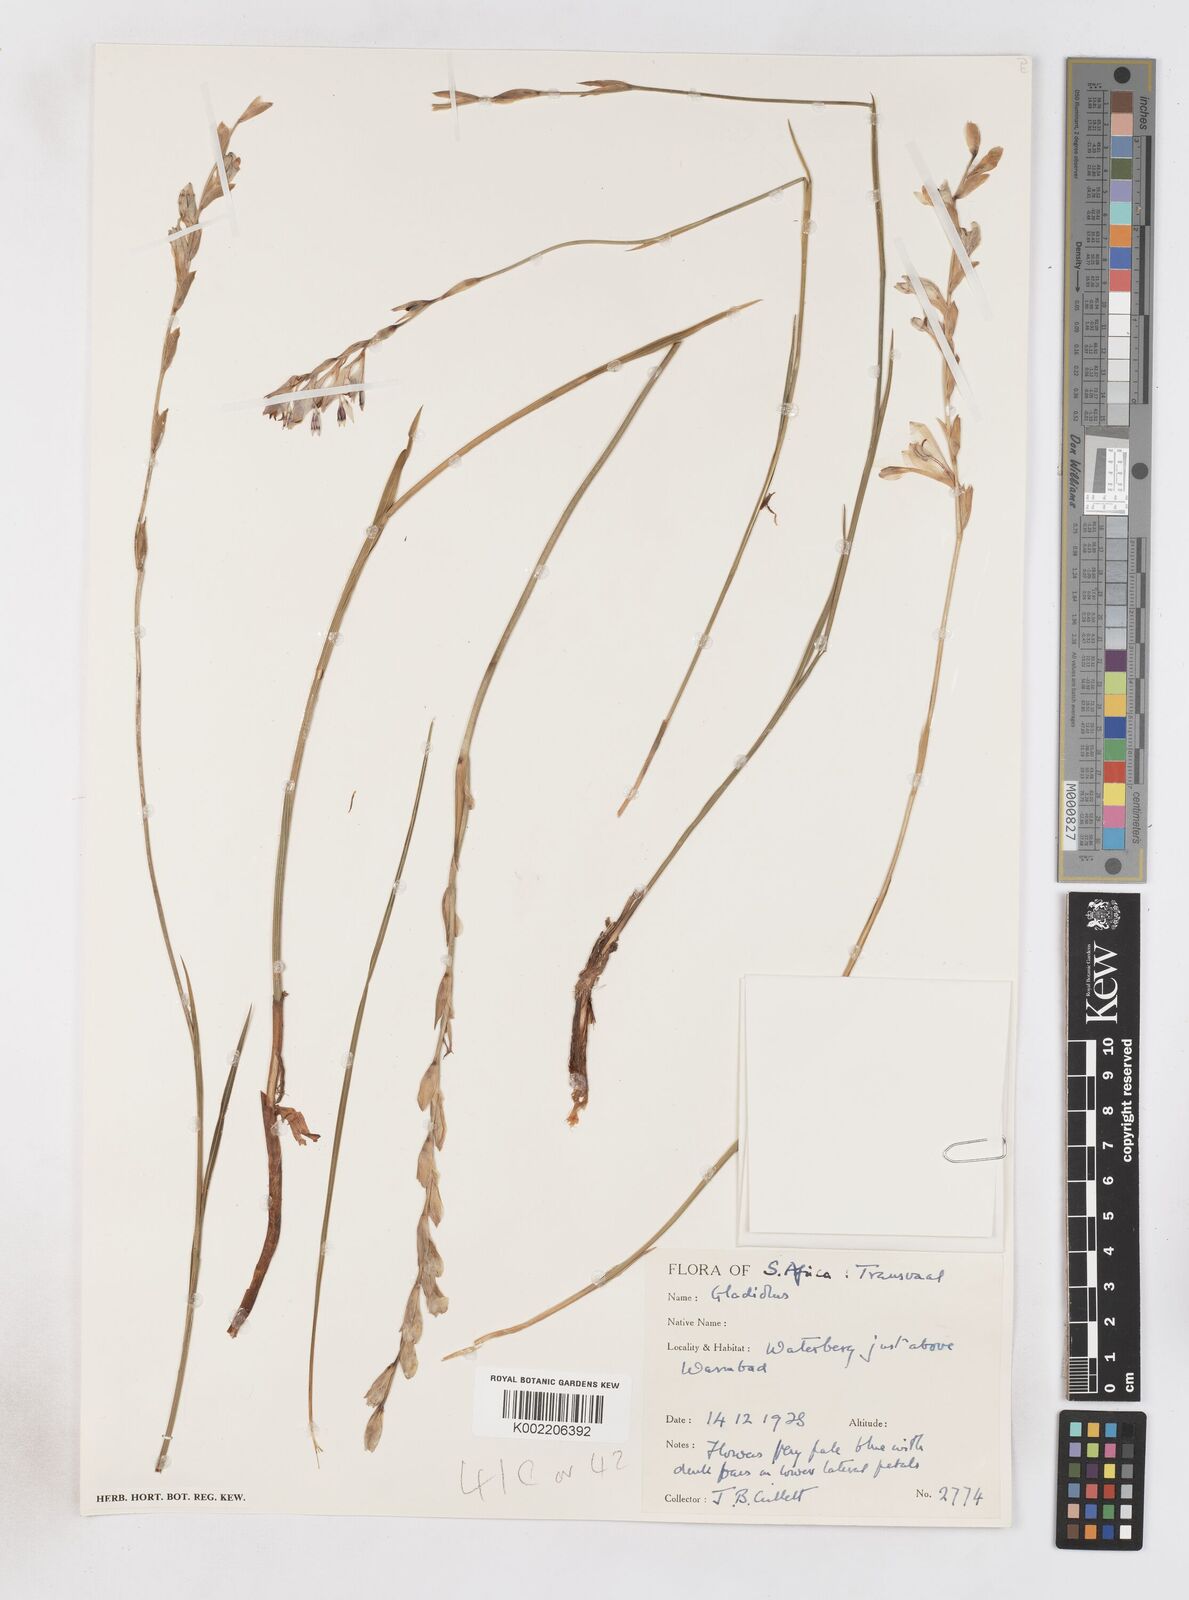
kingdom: Plantae
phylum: Tracheophyta
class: Liliopsida
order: Asparagales
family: Iridaceae
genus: Gladiolus
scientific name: Gladiolus unguiculatus
